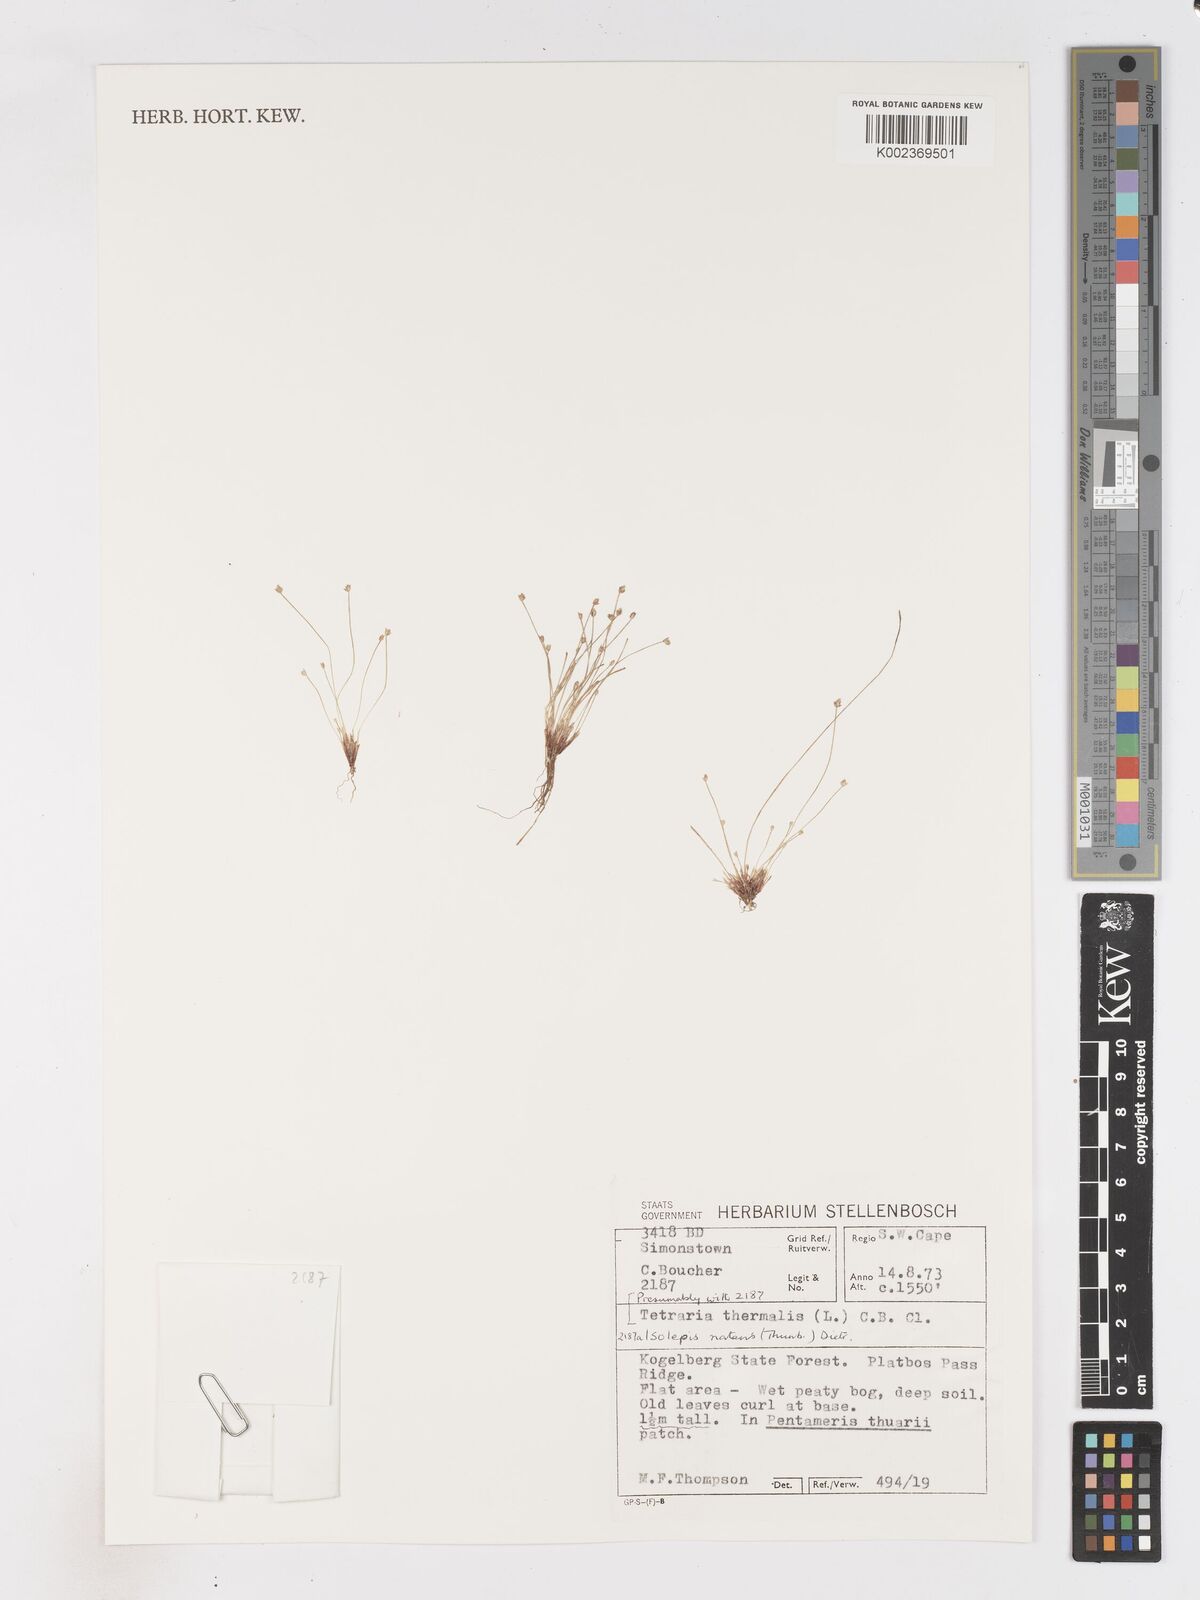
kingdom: Plantae
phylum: Tracheophyta
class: Liliopsida
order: Poales
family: Cyperaceae
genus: Isolepis
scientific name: Isolepis natans
